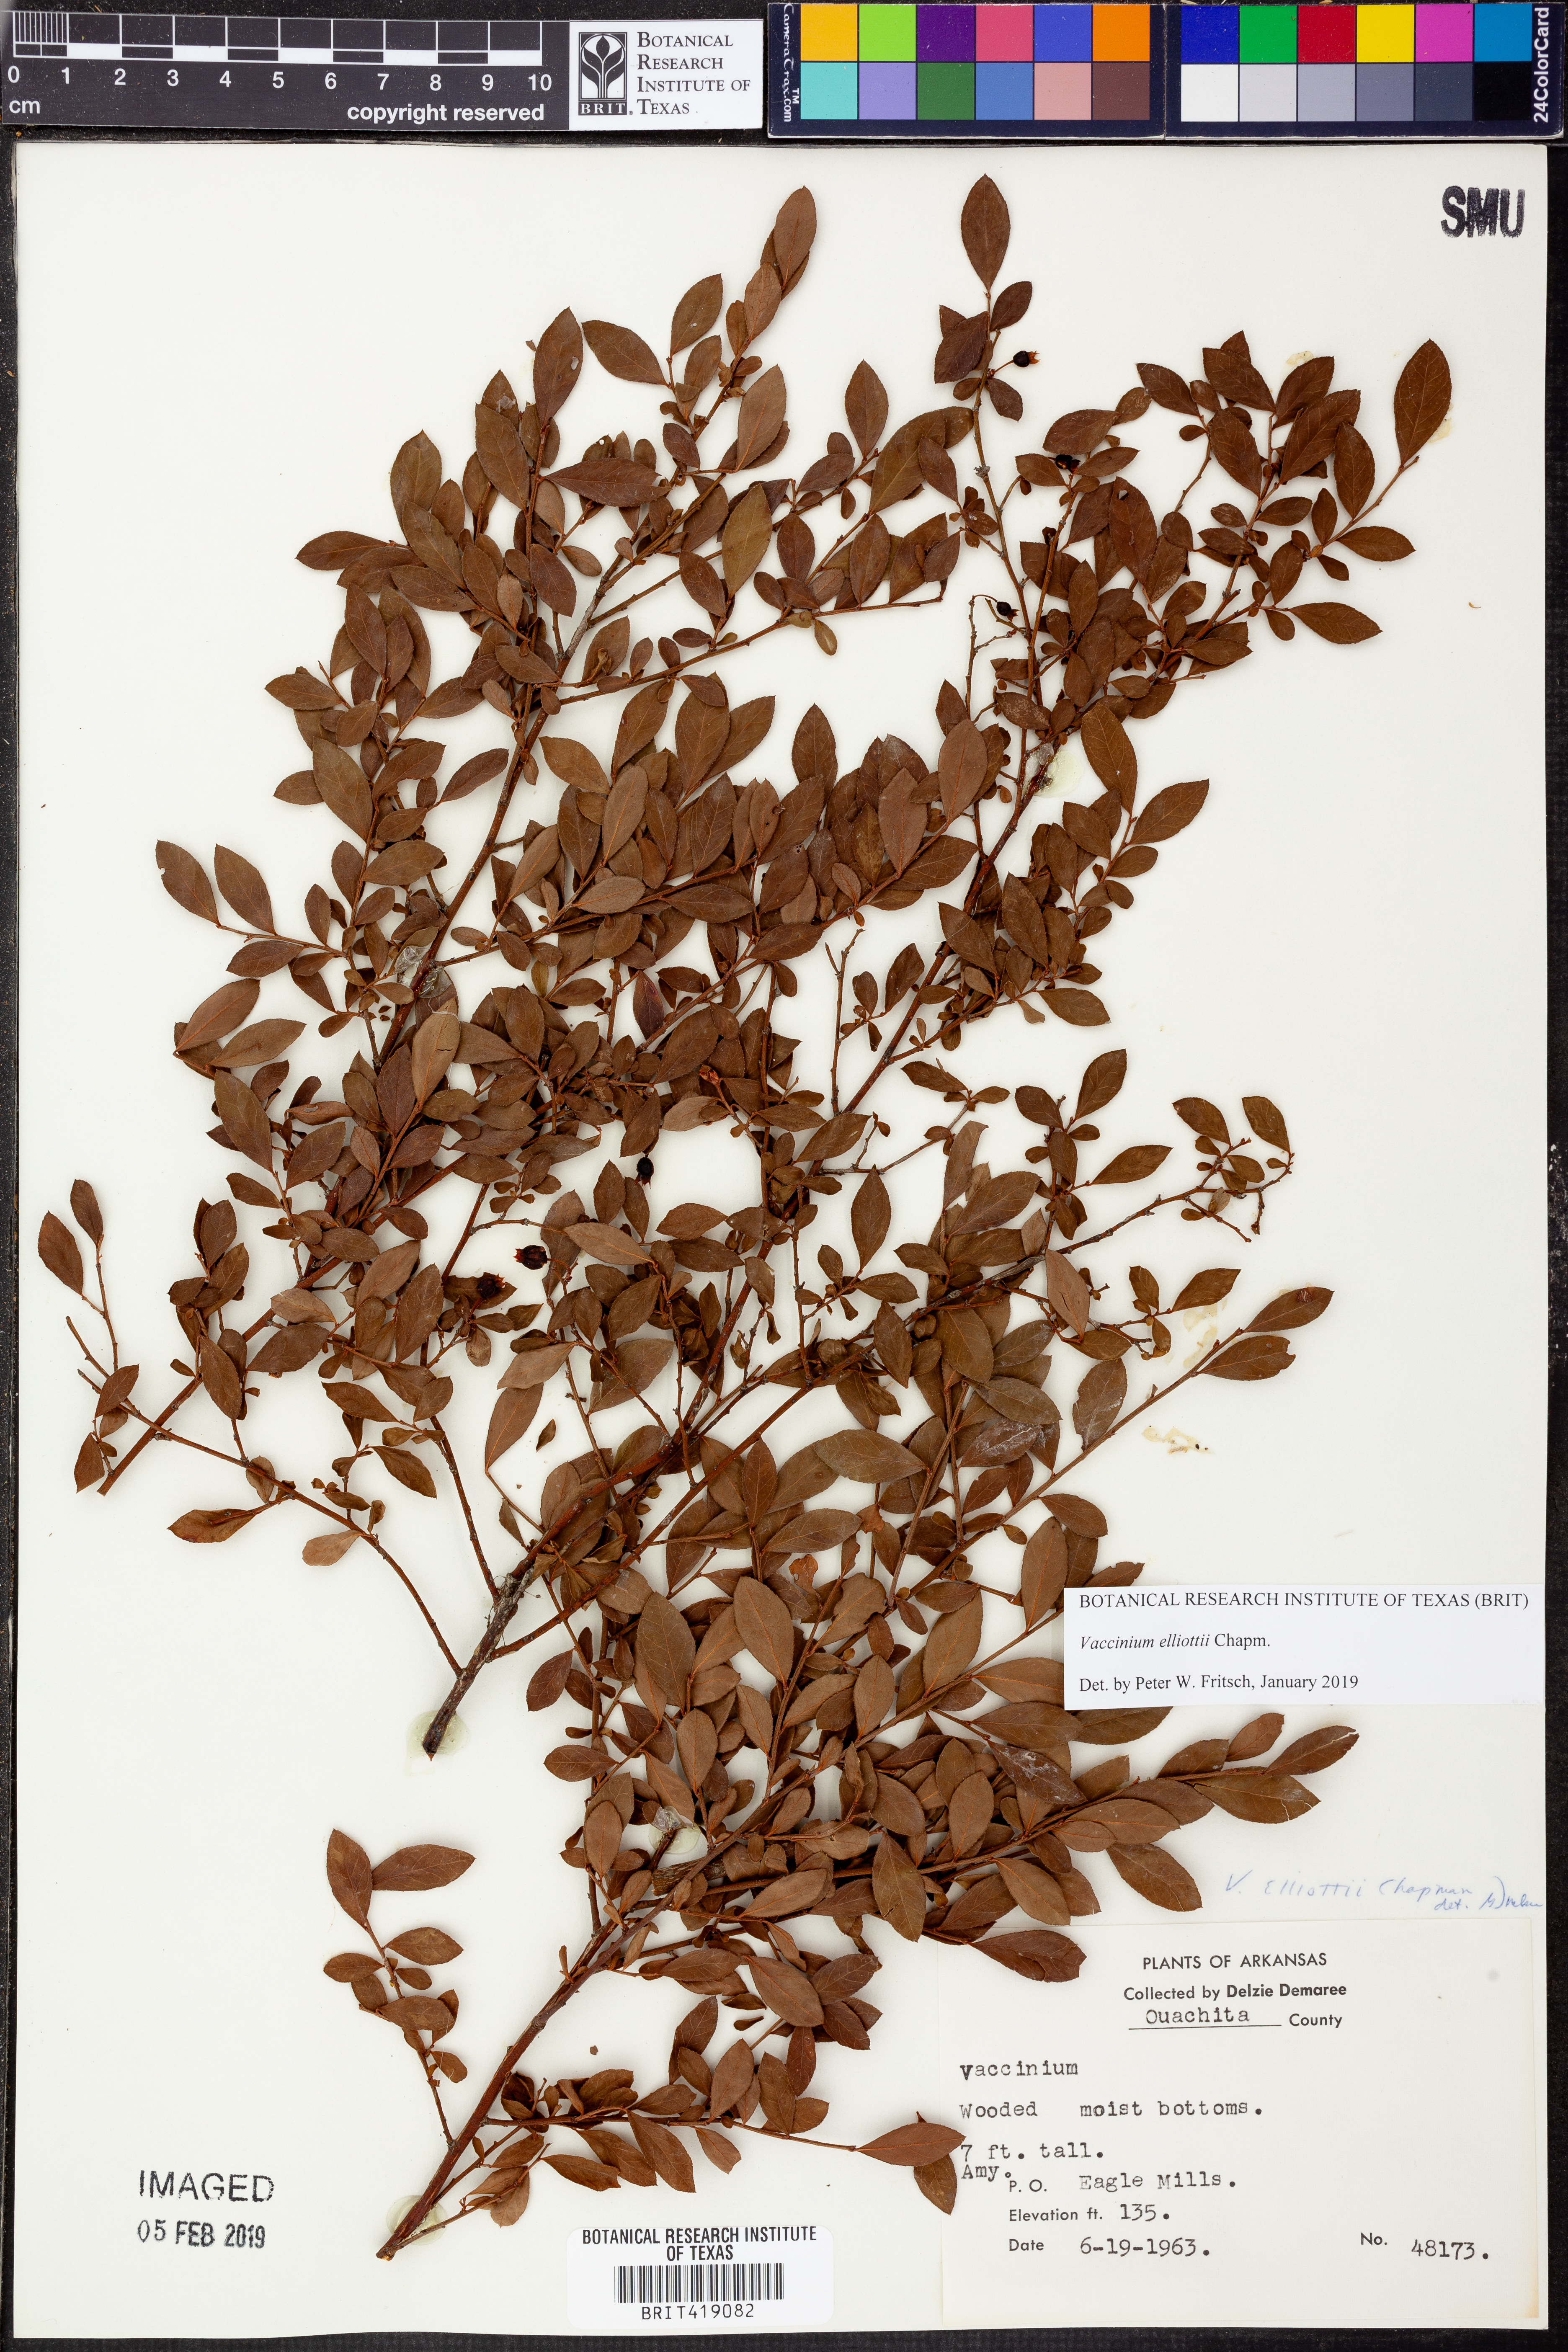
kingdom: Plantae
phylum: Tracheophyta
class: Magnoliopsida
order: Ericales
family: Ericaceae
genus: Vaccinium
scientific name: Vaccinium corymbosum
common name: Blueberry
